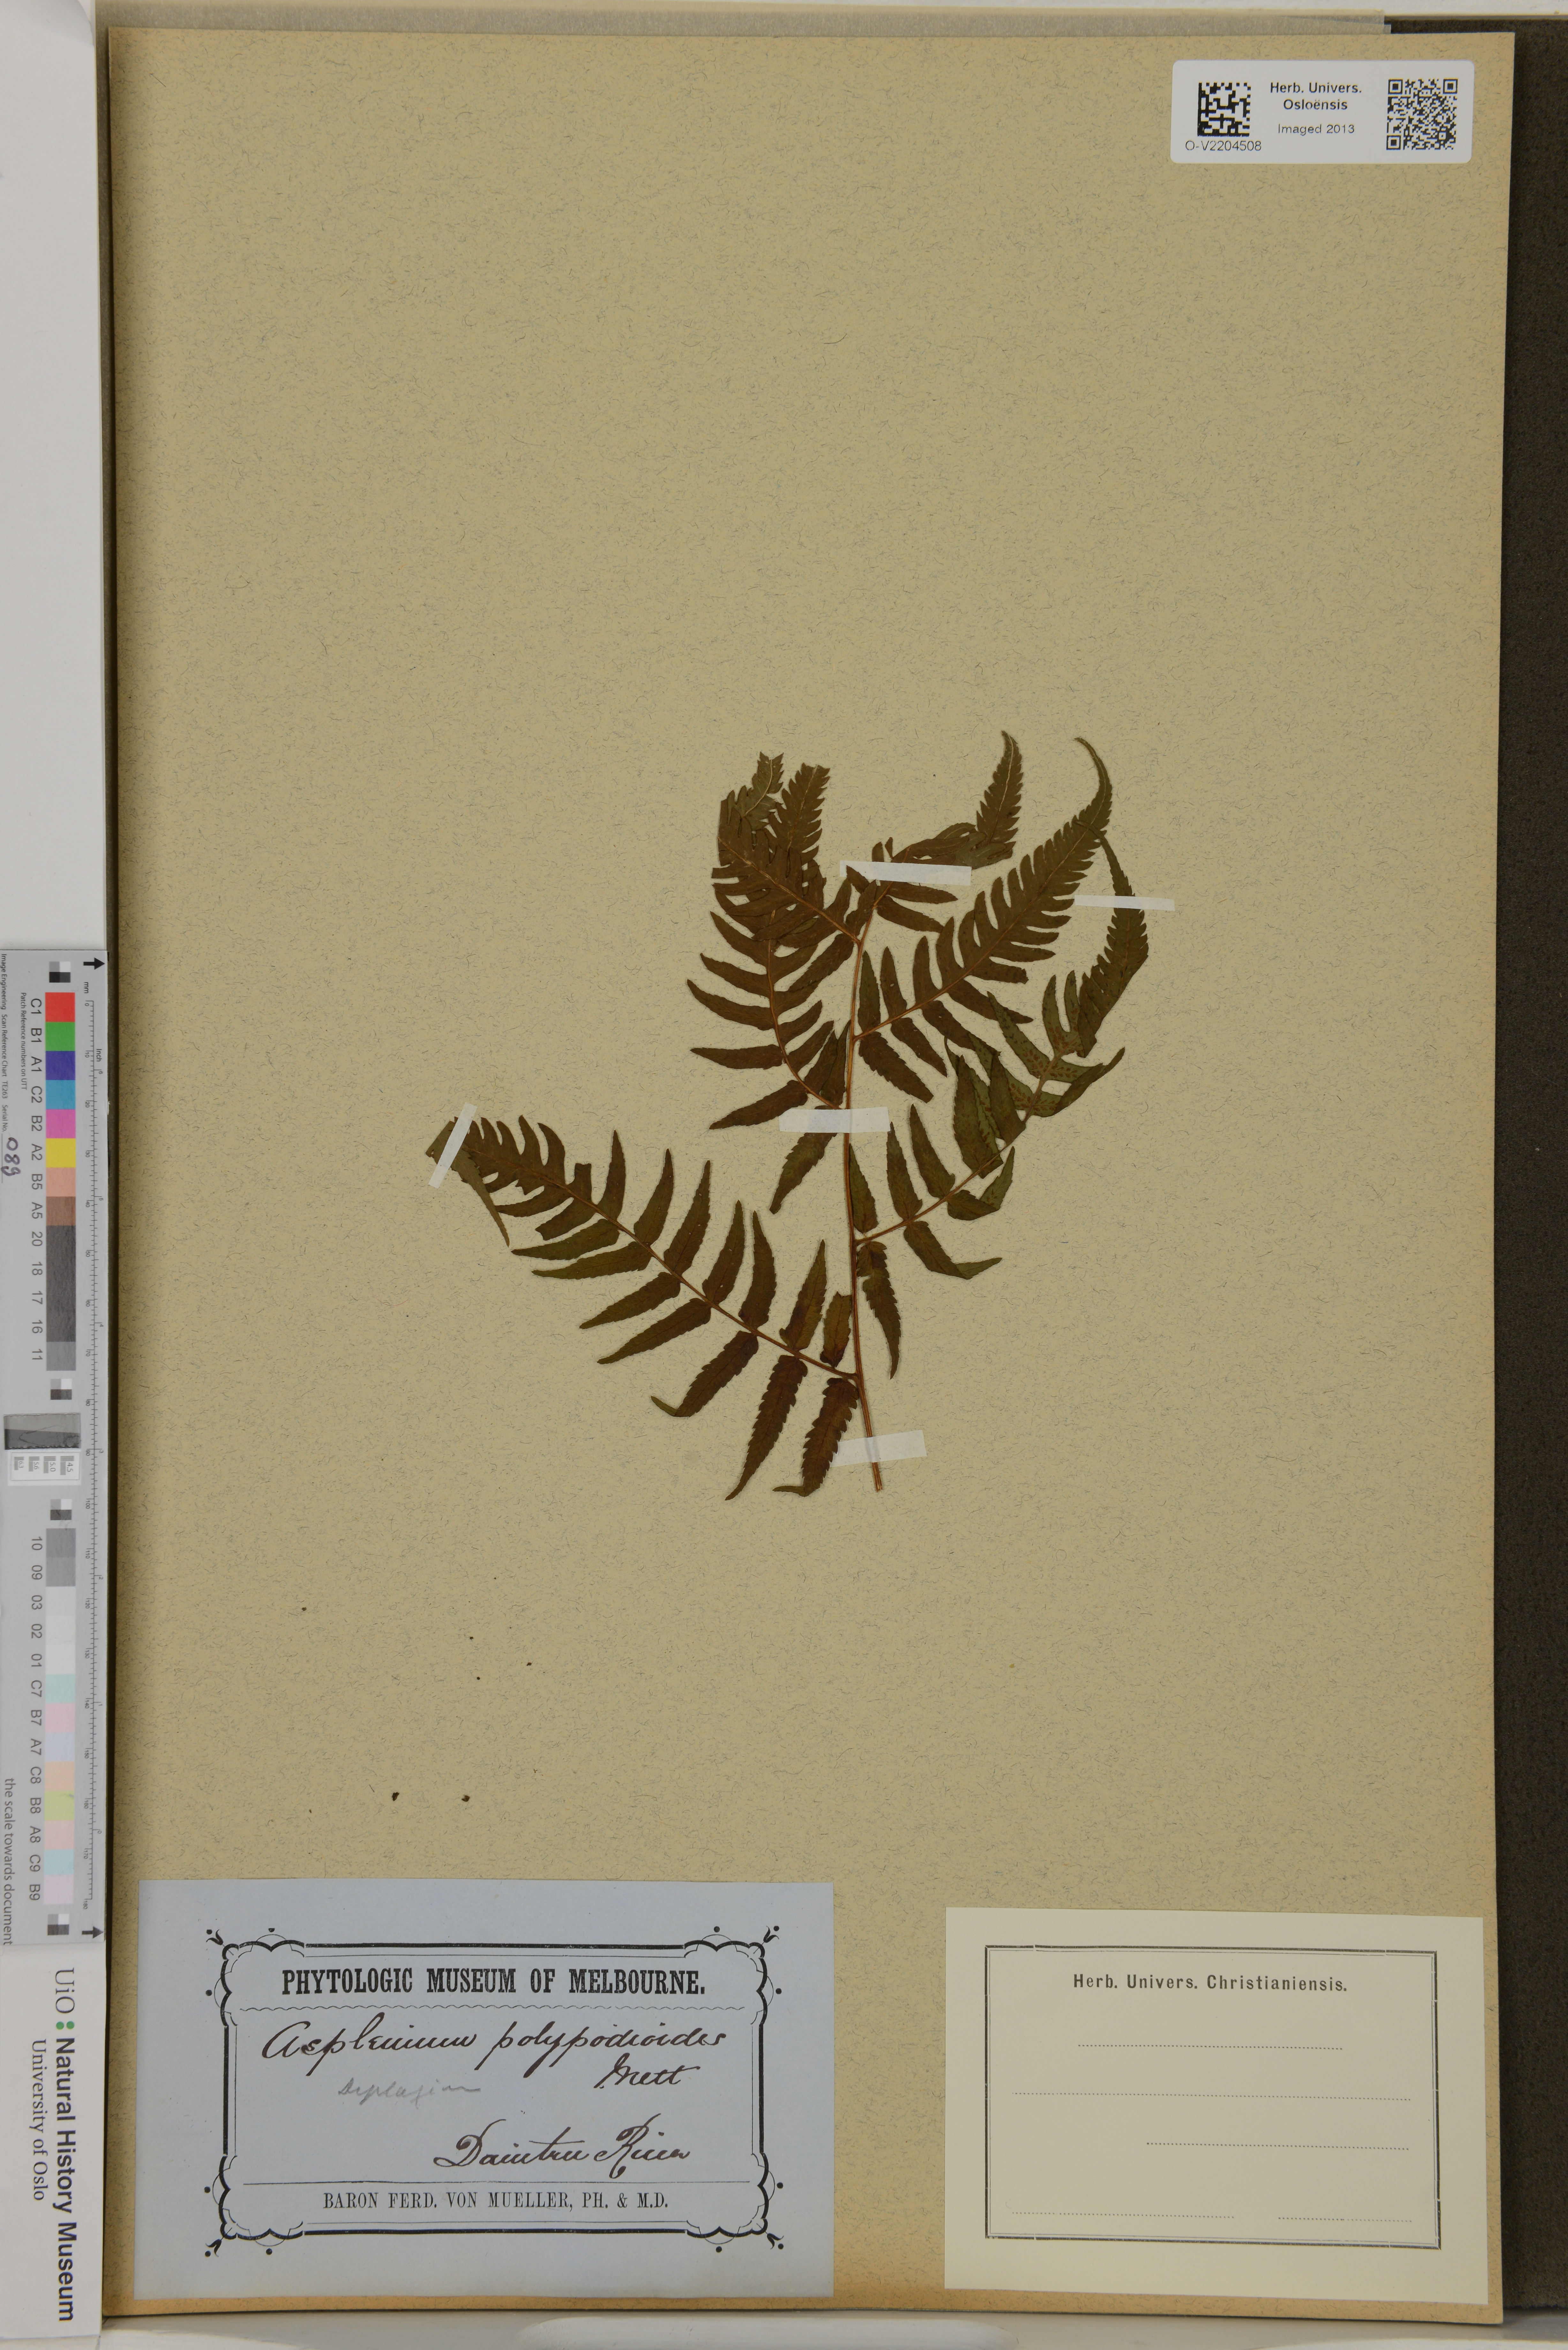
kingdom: Plantae
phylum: Tracheophyta
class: Polypodiopsida
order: Polypodiales
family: Athyriaceae
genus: Diplazium
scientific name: Diplazium polypodioides
